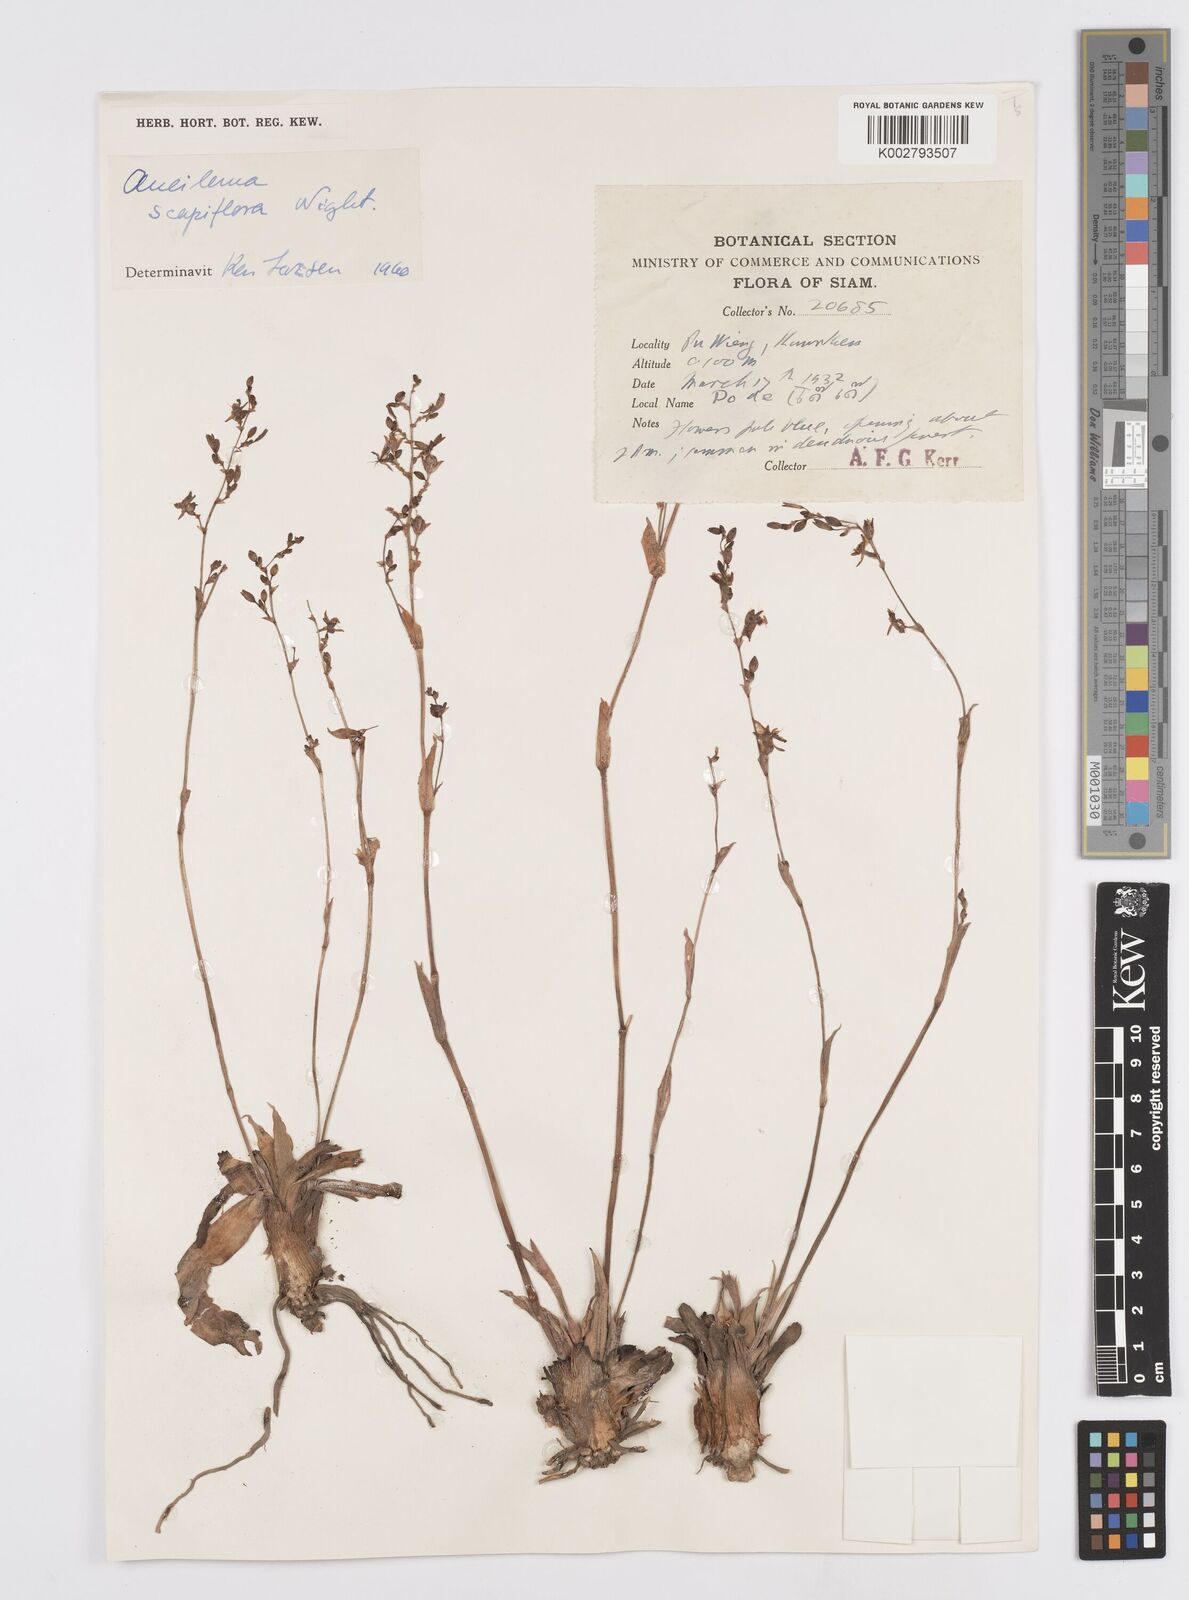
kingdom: Plantae
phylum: Tracheophyta
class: Liliopsida
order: Commelinales
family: Commelinaceae
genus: Murdannia
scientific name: Murdannia edulis
